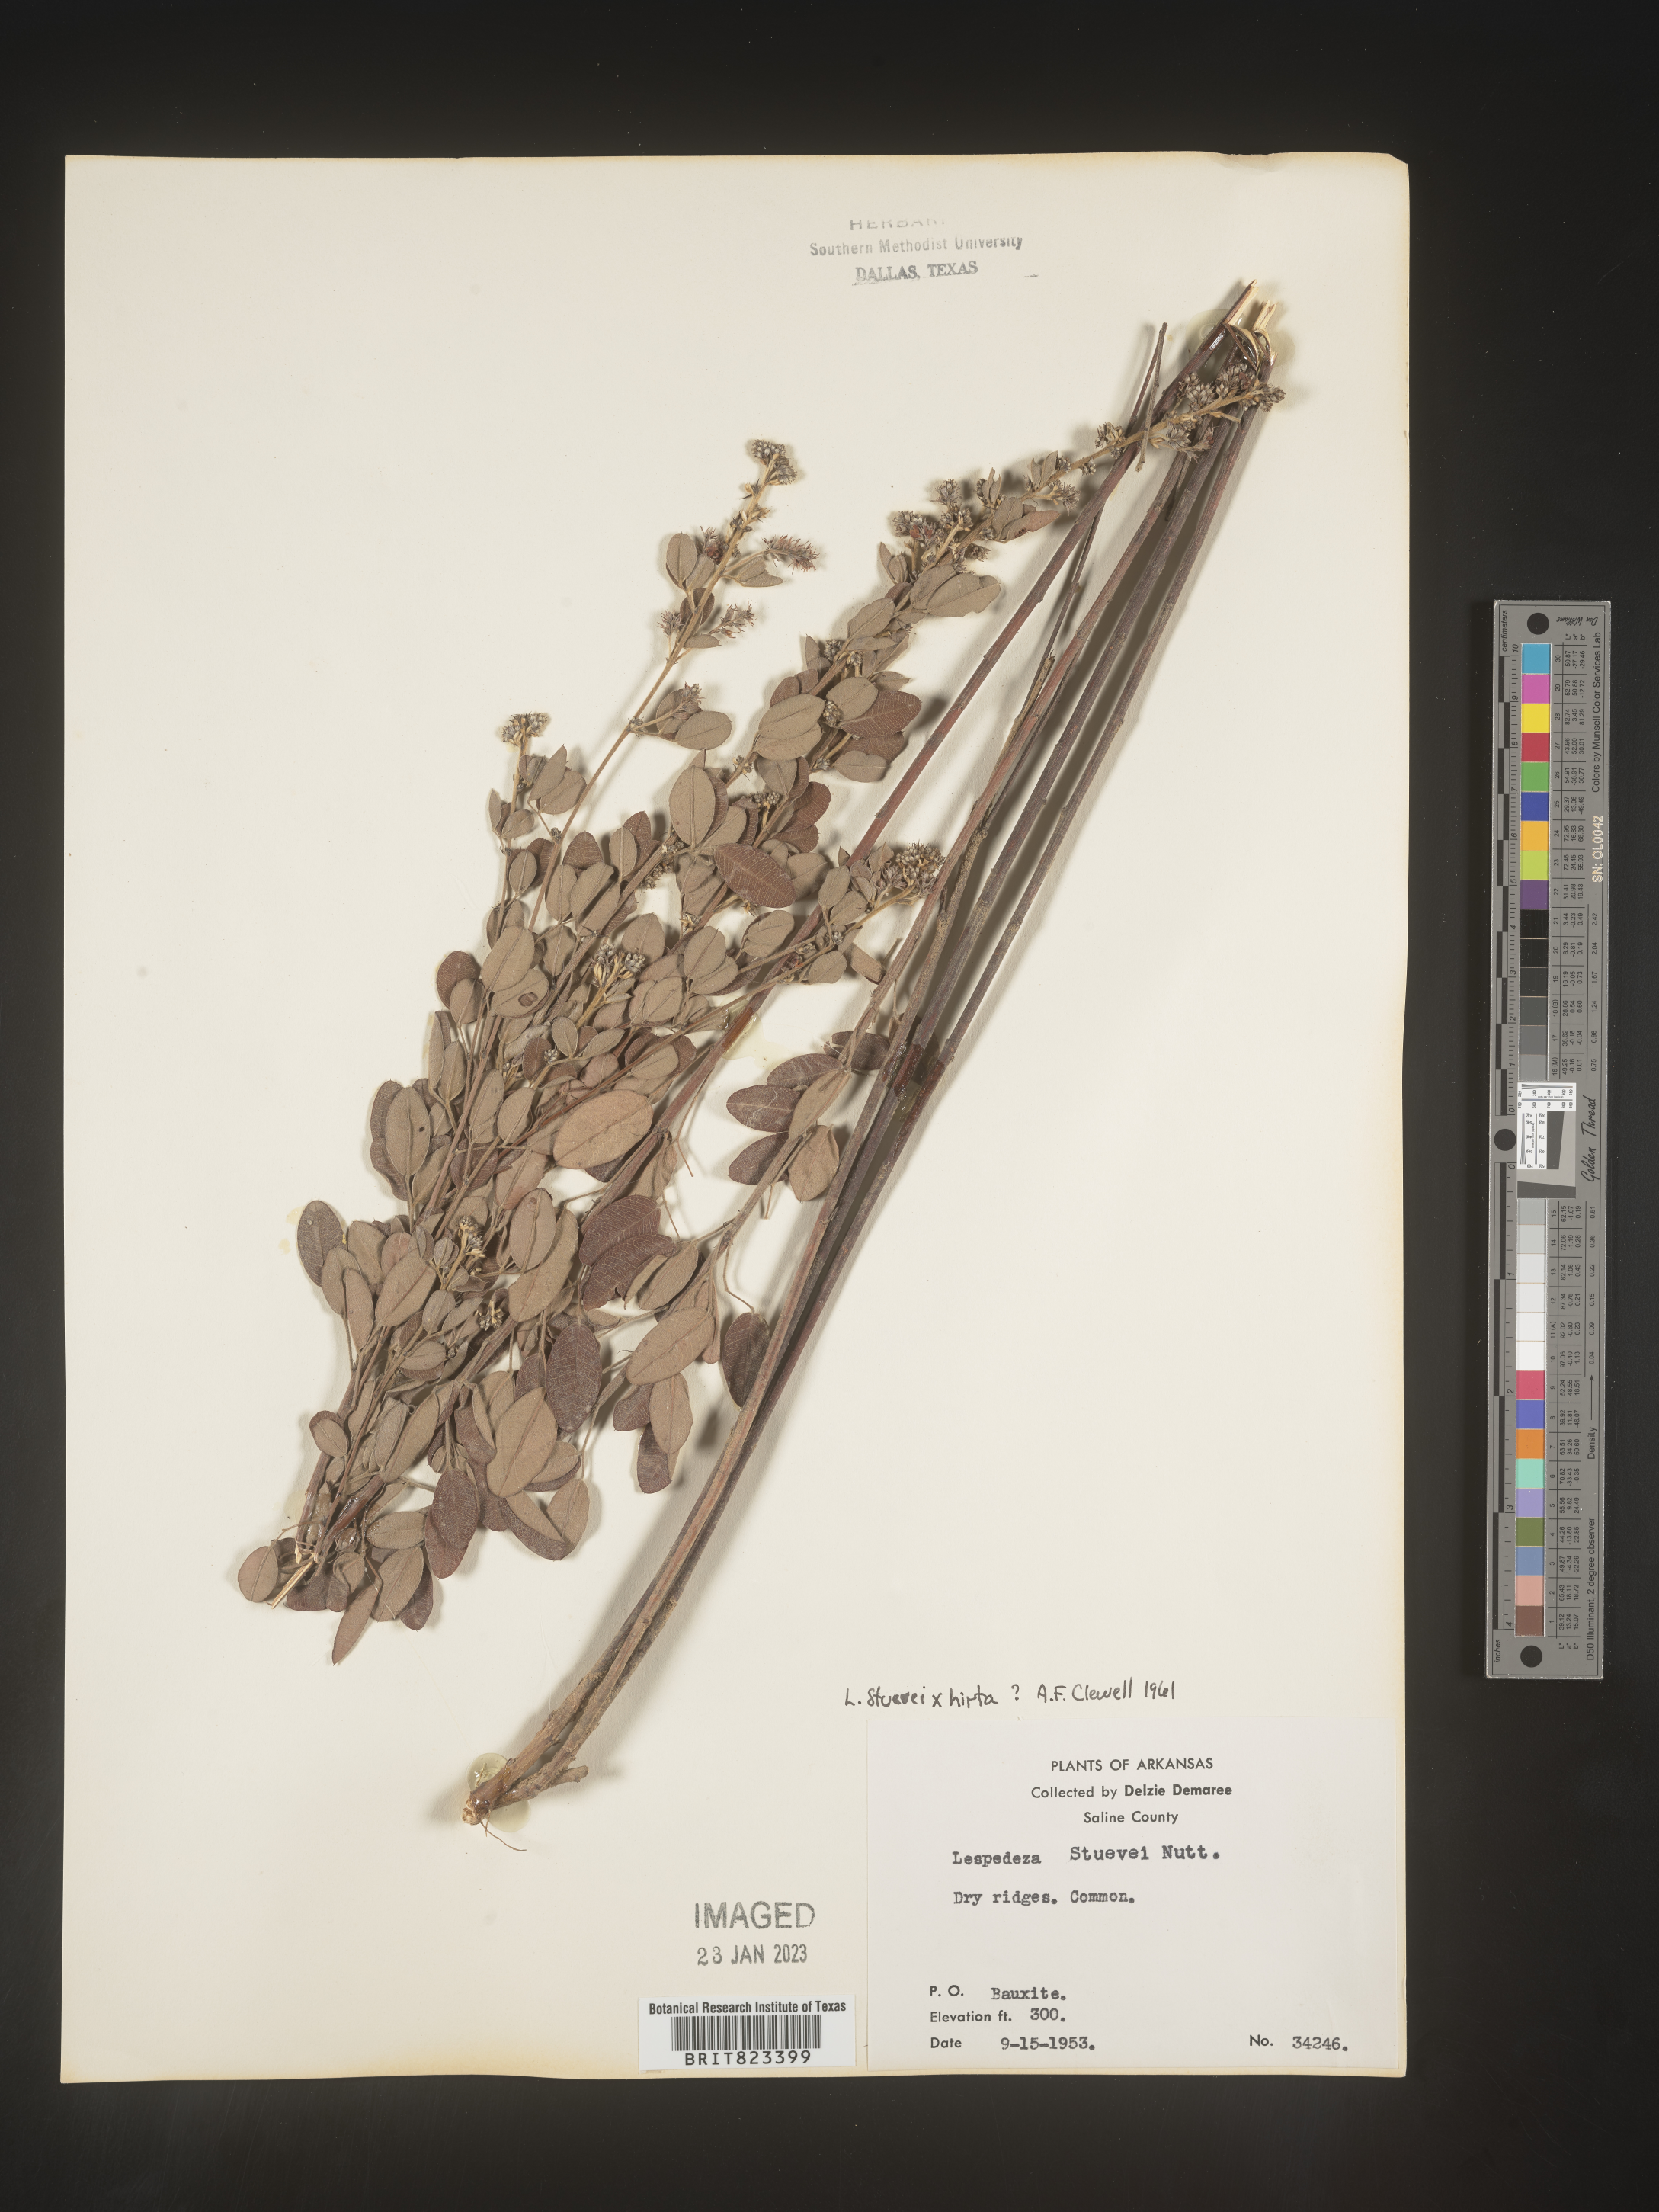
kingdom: Plantae
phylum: Tracheophyta
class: Magnoliopsida
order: Fabales
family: Fabaceae
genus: Lespedeza
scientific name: Lespedeza stuevei
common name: Tall bush-clover
